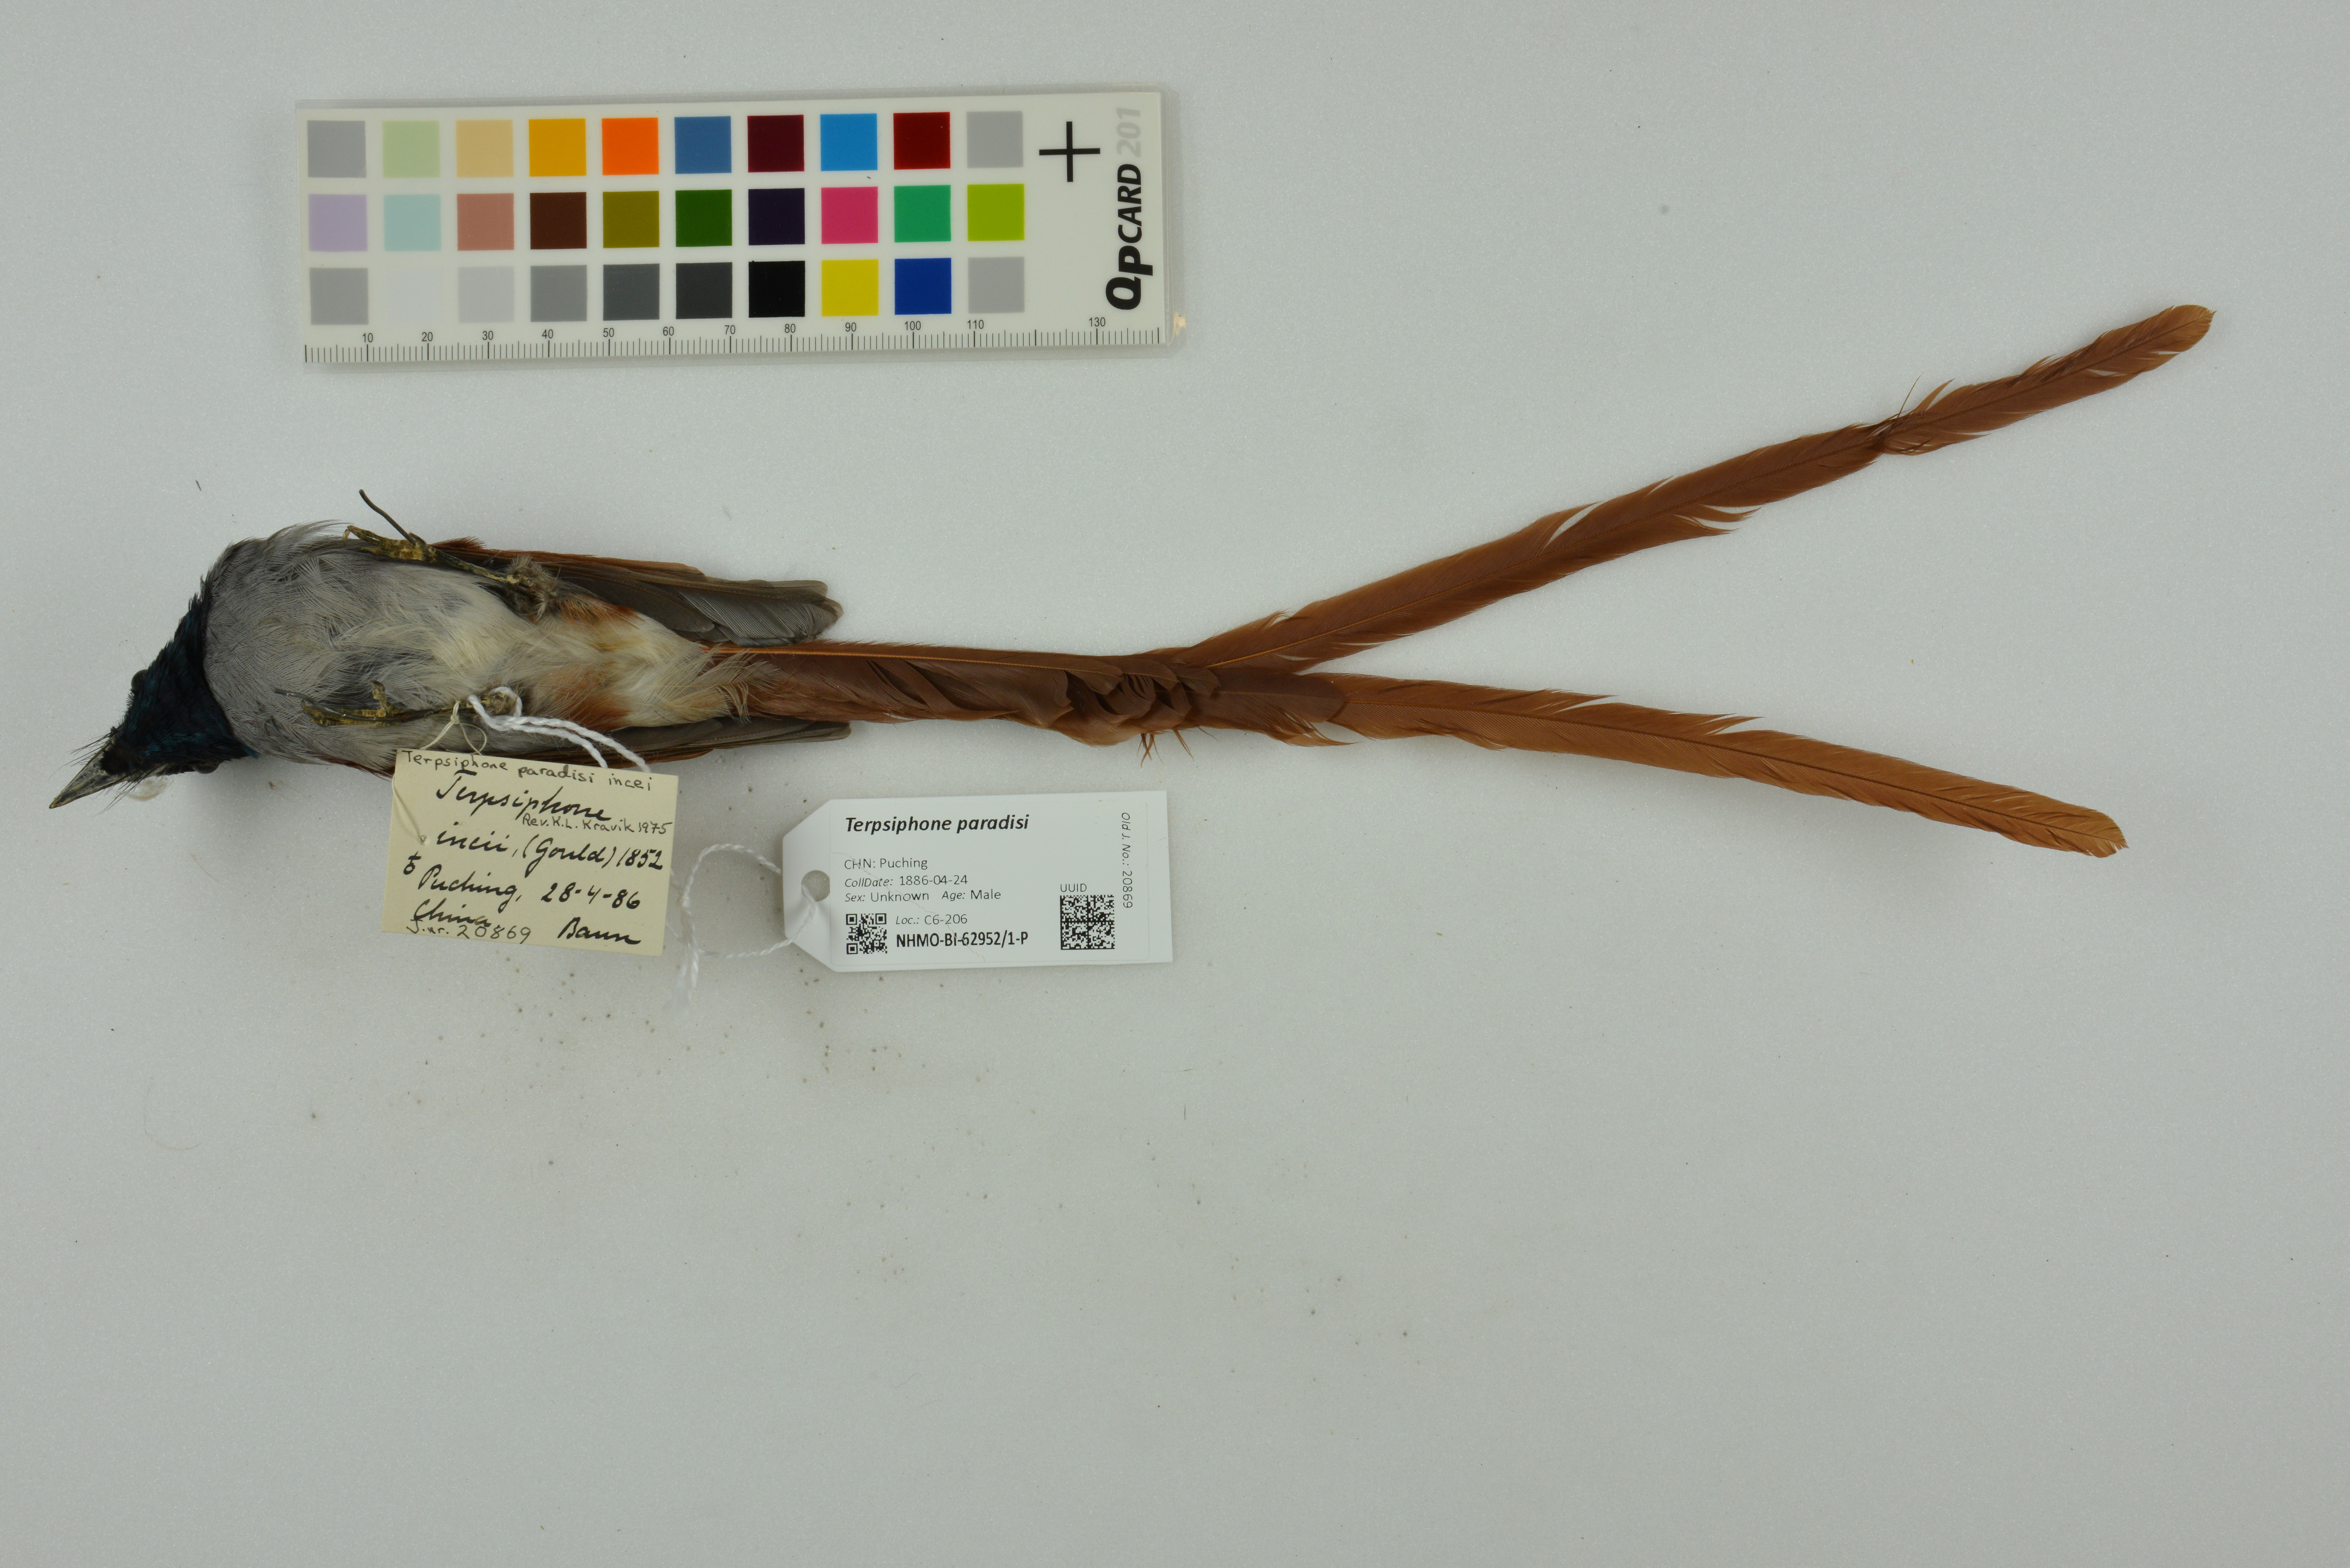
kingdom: Animalia
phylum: Chordata
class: Aves
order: Passeriformes
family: Monarchidae
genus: Terpsiphone
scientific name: Terpsiphone paradisi
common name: Indian paradise flycatcher
